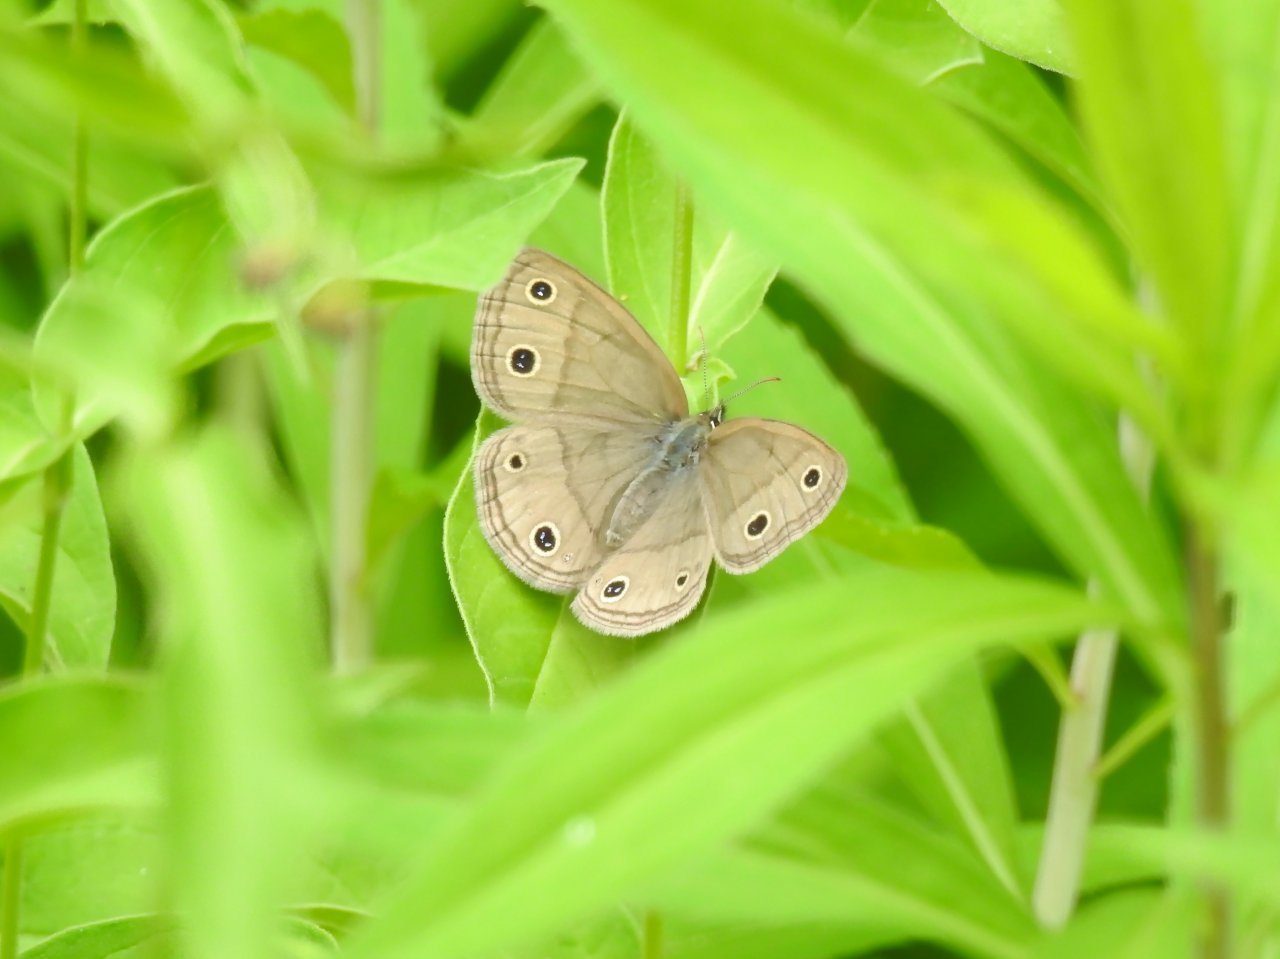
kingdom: Animalia
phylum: Arthropoda
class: Insecta
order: Lepidoptera
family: Nymphalidae
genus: Euptychia
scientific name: Euptychia cymela
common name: Little Wood Satyr
